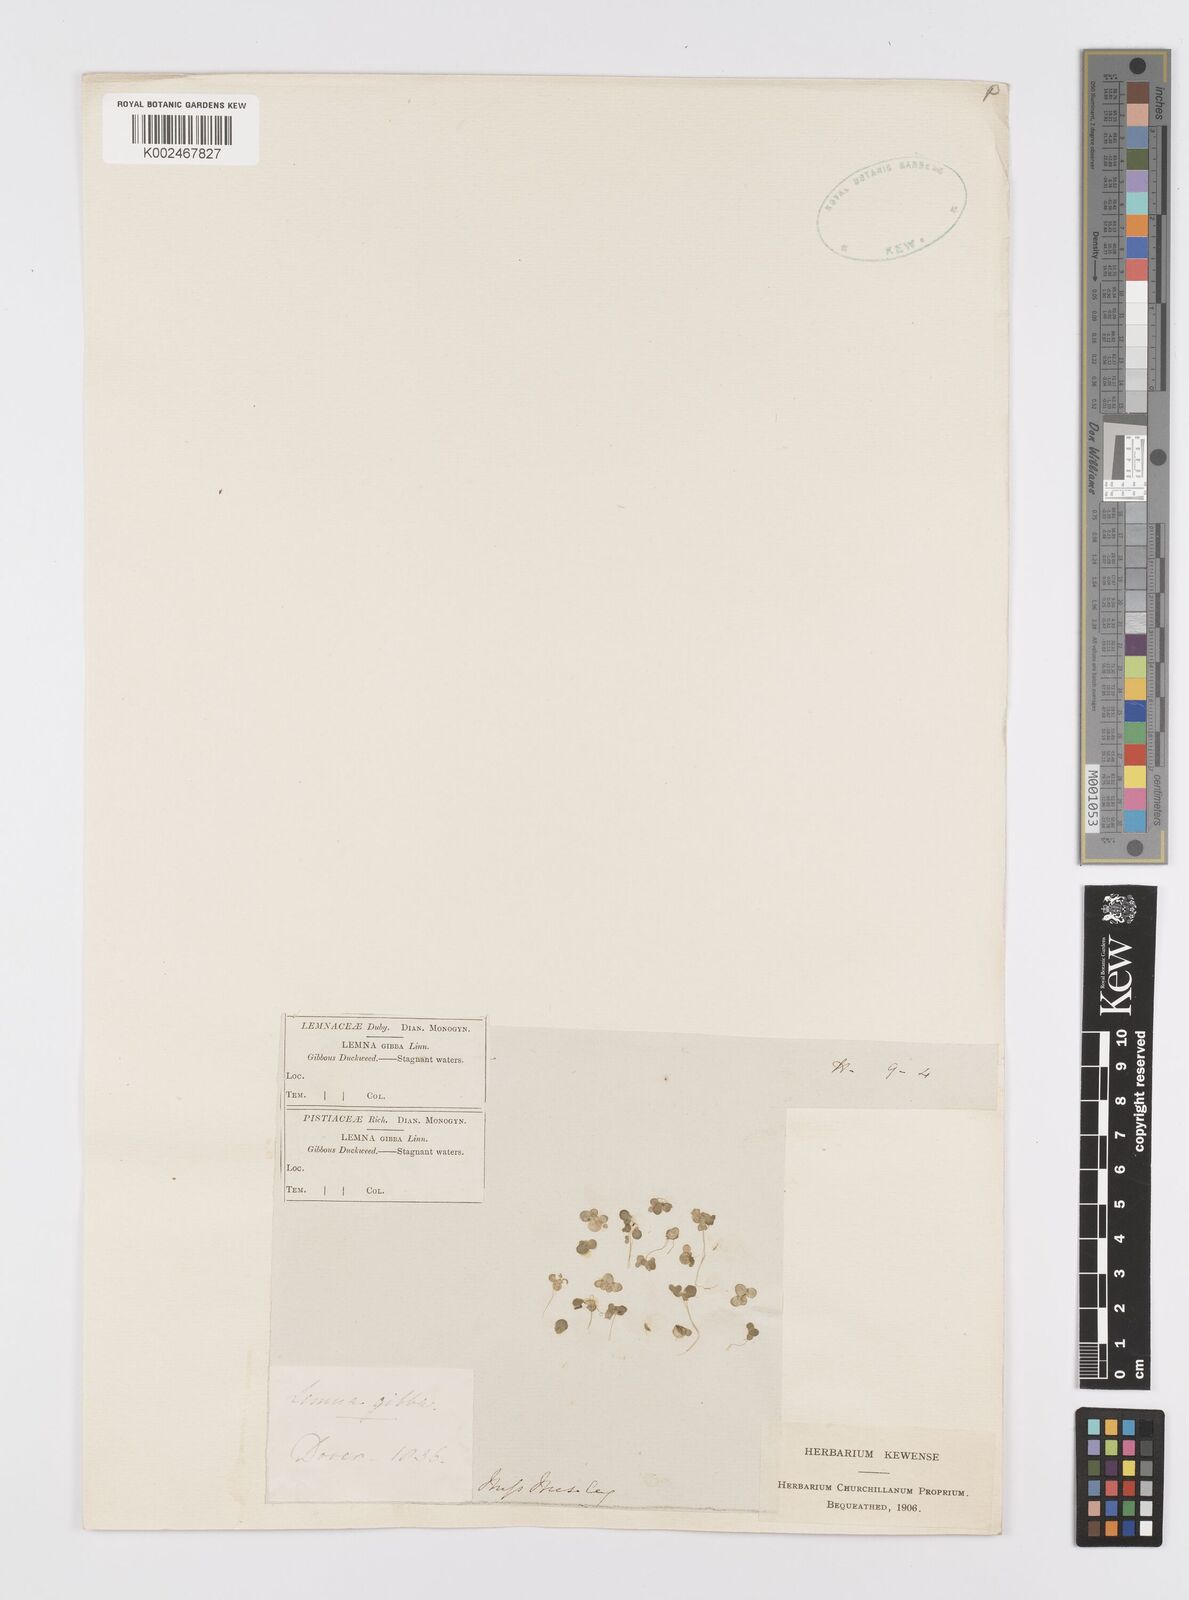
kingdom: Plantae
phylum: Tracheophyta
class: Liliopsida
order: Alismatales
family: Araceae
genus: Lemna
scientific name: Lemna gibba
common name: Fat duckweed
